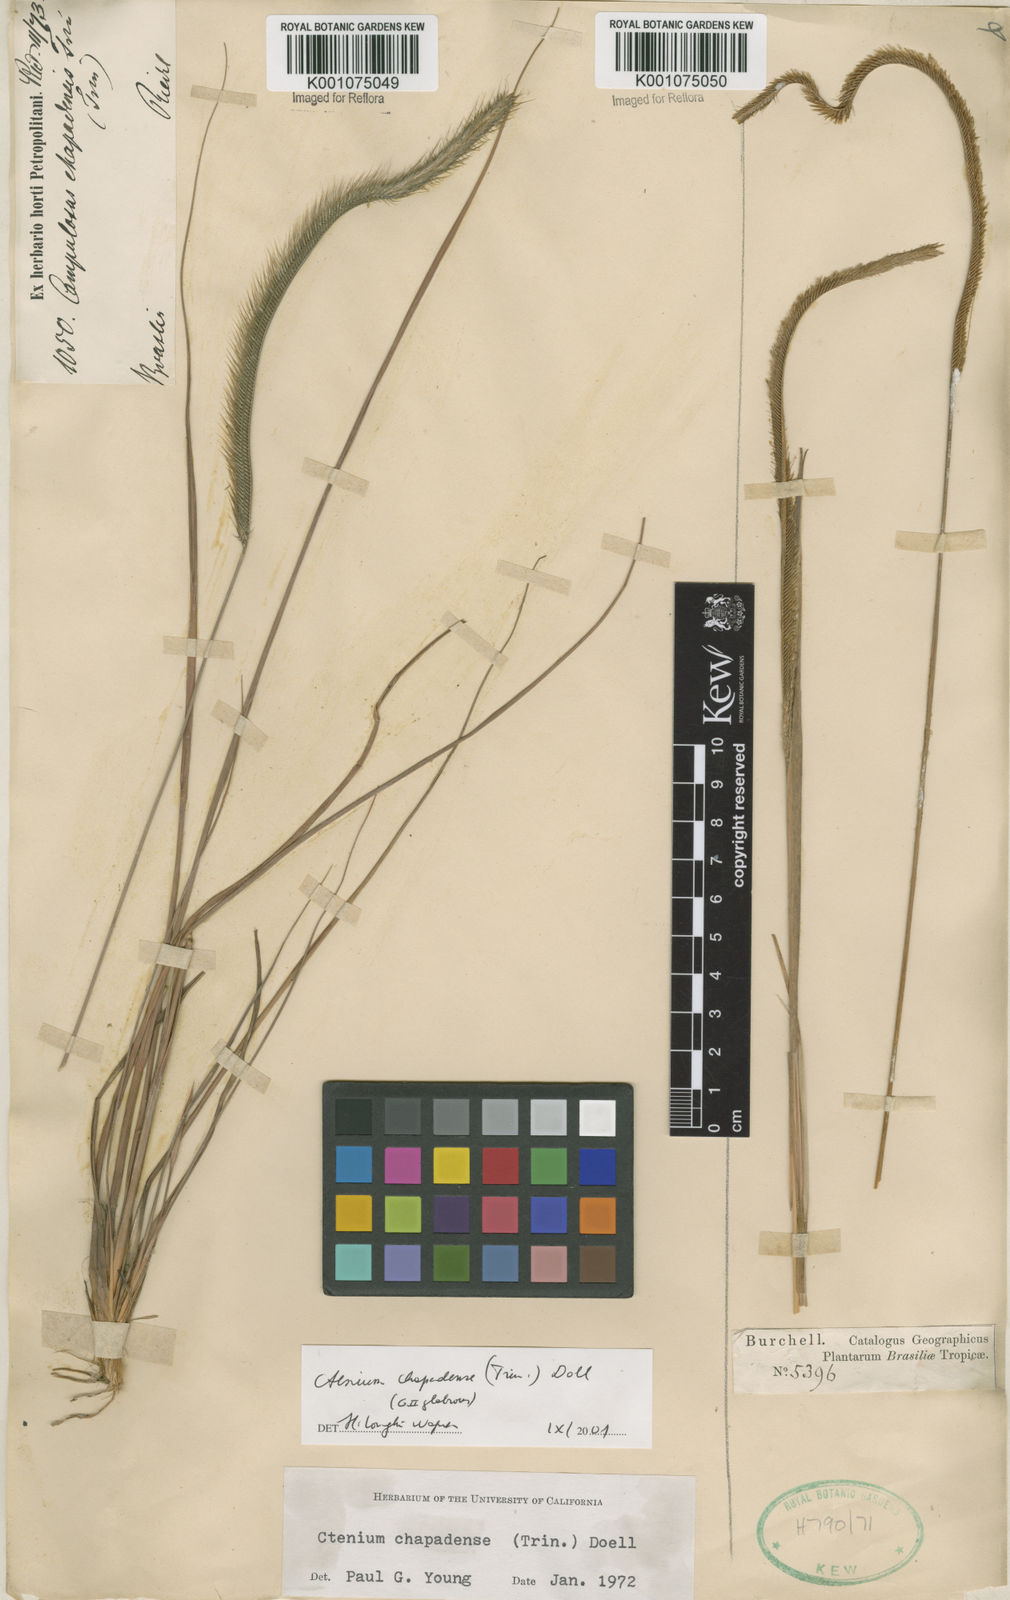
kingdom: Plantae
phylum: Tracheophyta
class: Liliopsida
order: Poales
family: Poaceae
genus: Ctenium
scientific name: Ctenium
